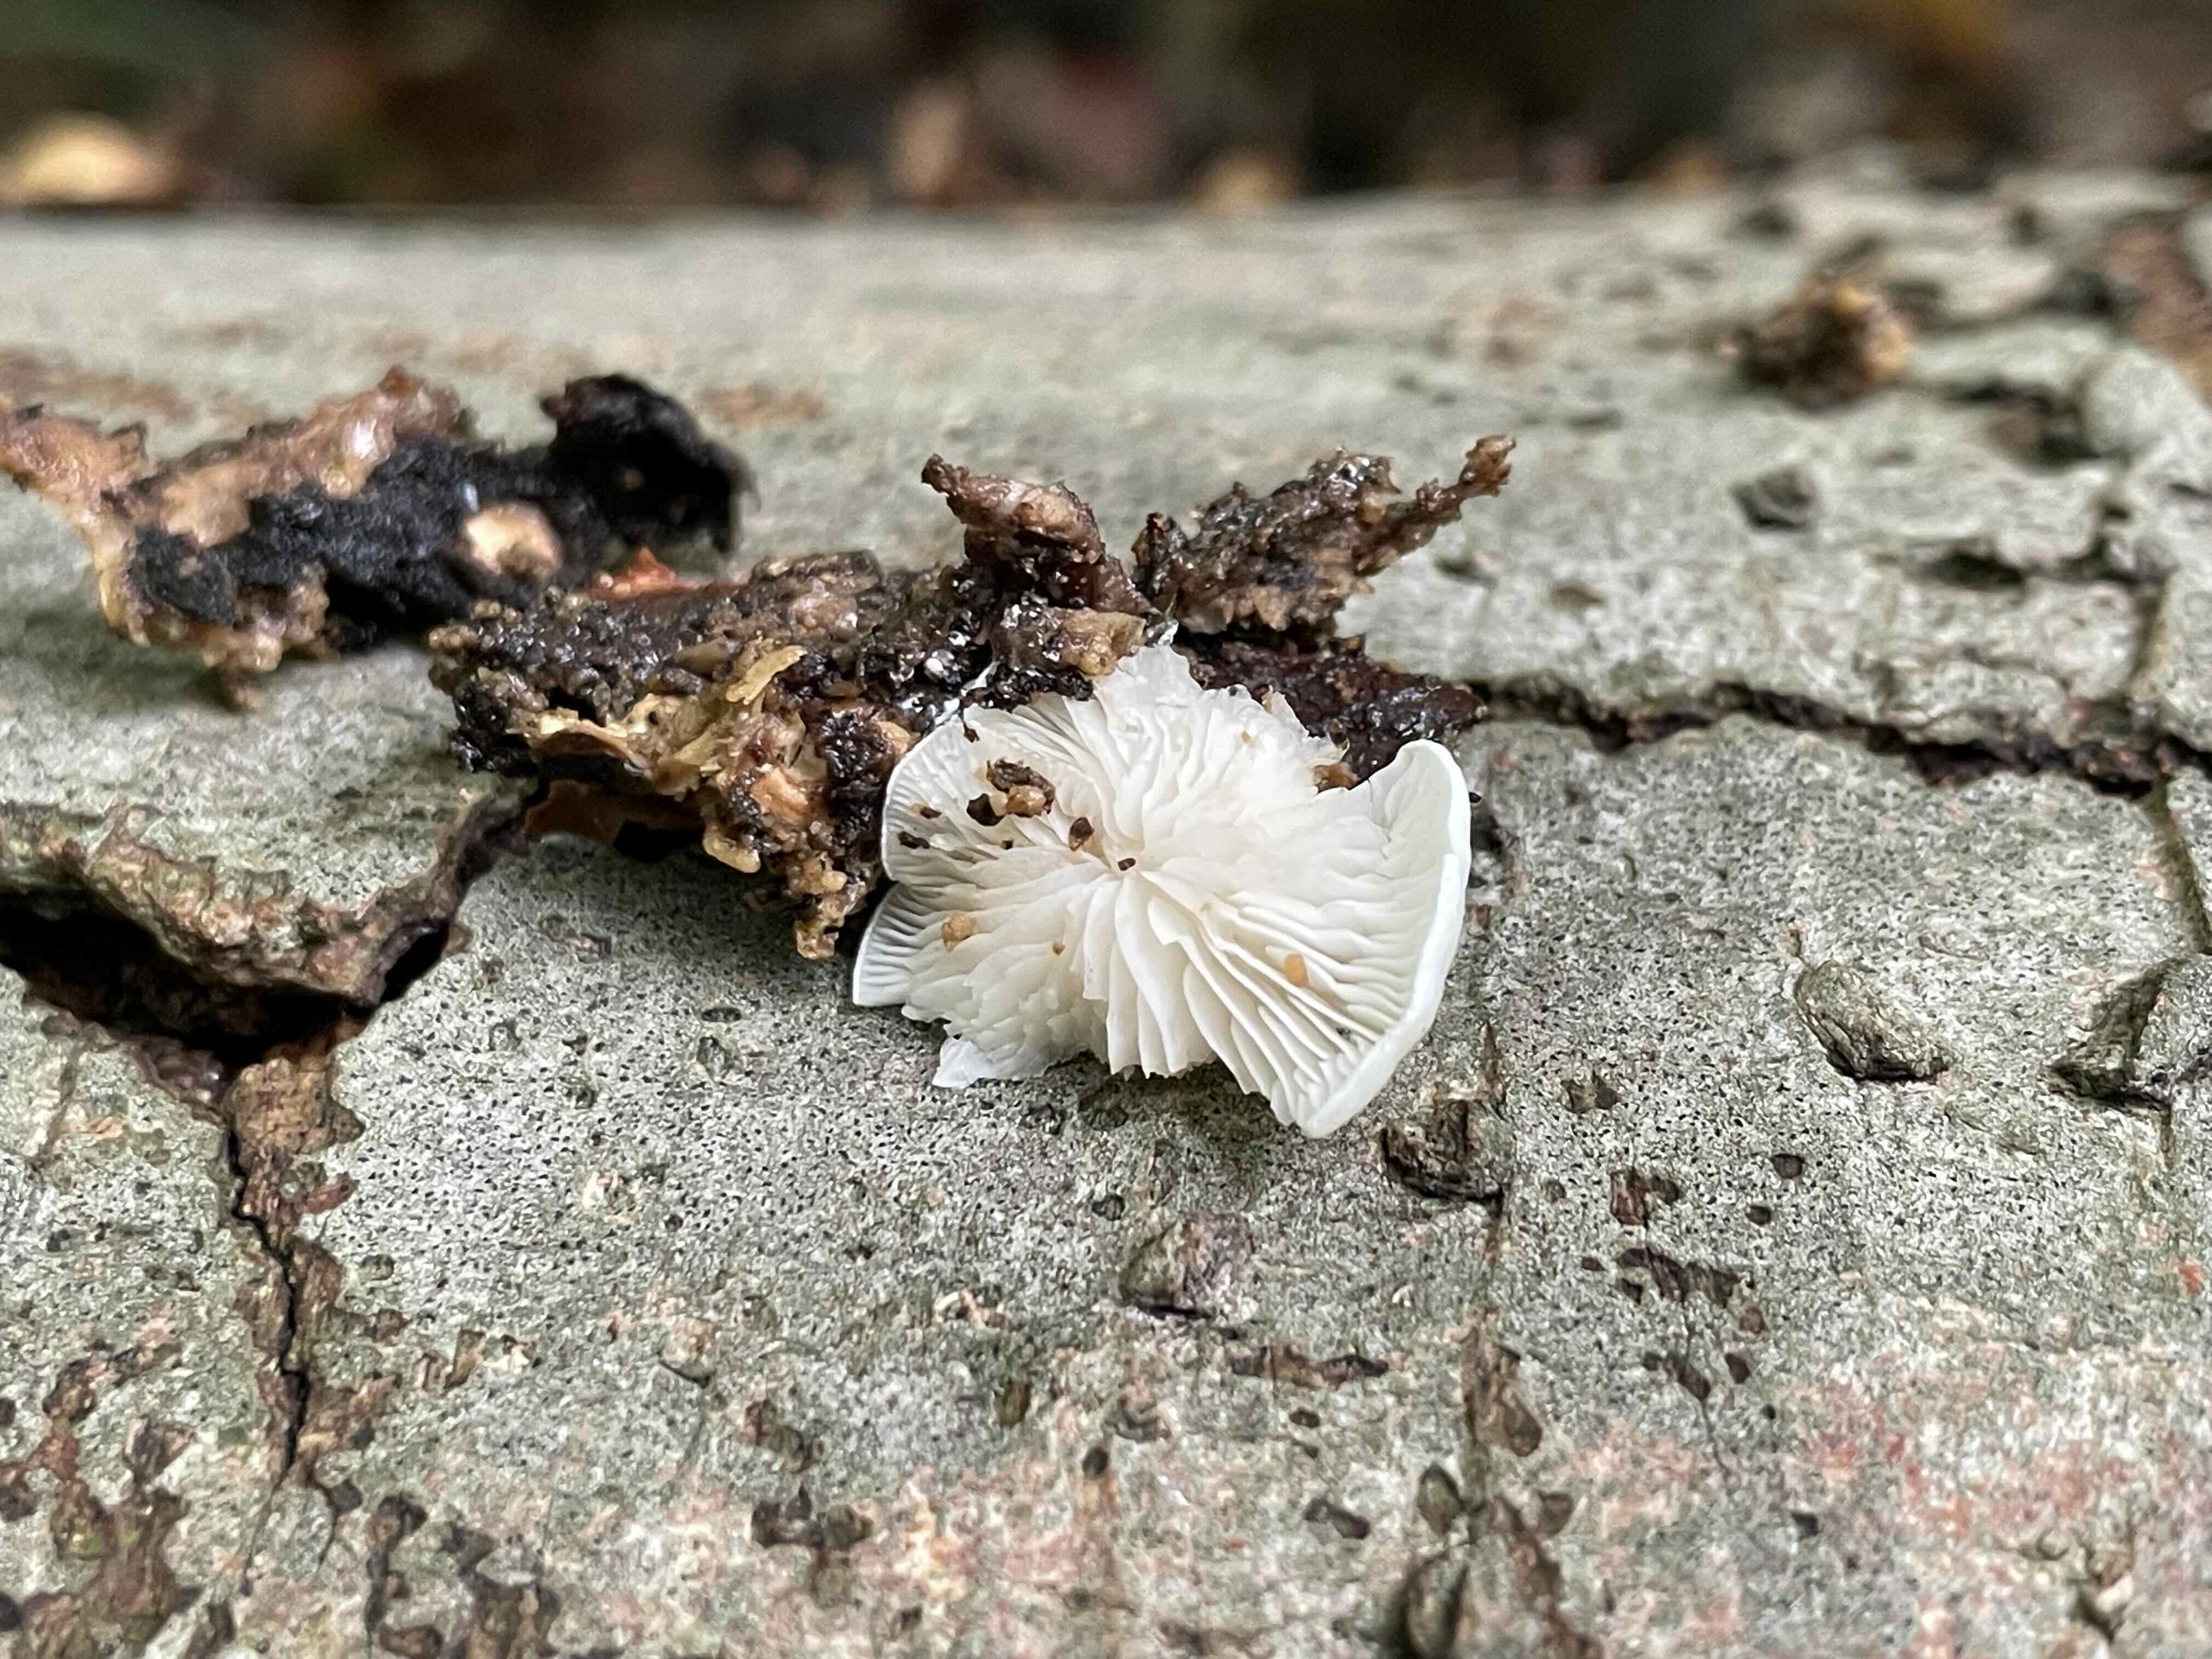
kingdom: Fungi
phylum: Basidiomycota
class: Agaricomycetes
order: Agaricales
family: Entolomataceae
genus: Clitopilus
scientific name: Clitopilus hobsonii
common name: Miller's oysterling
